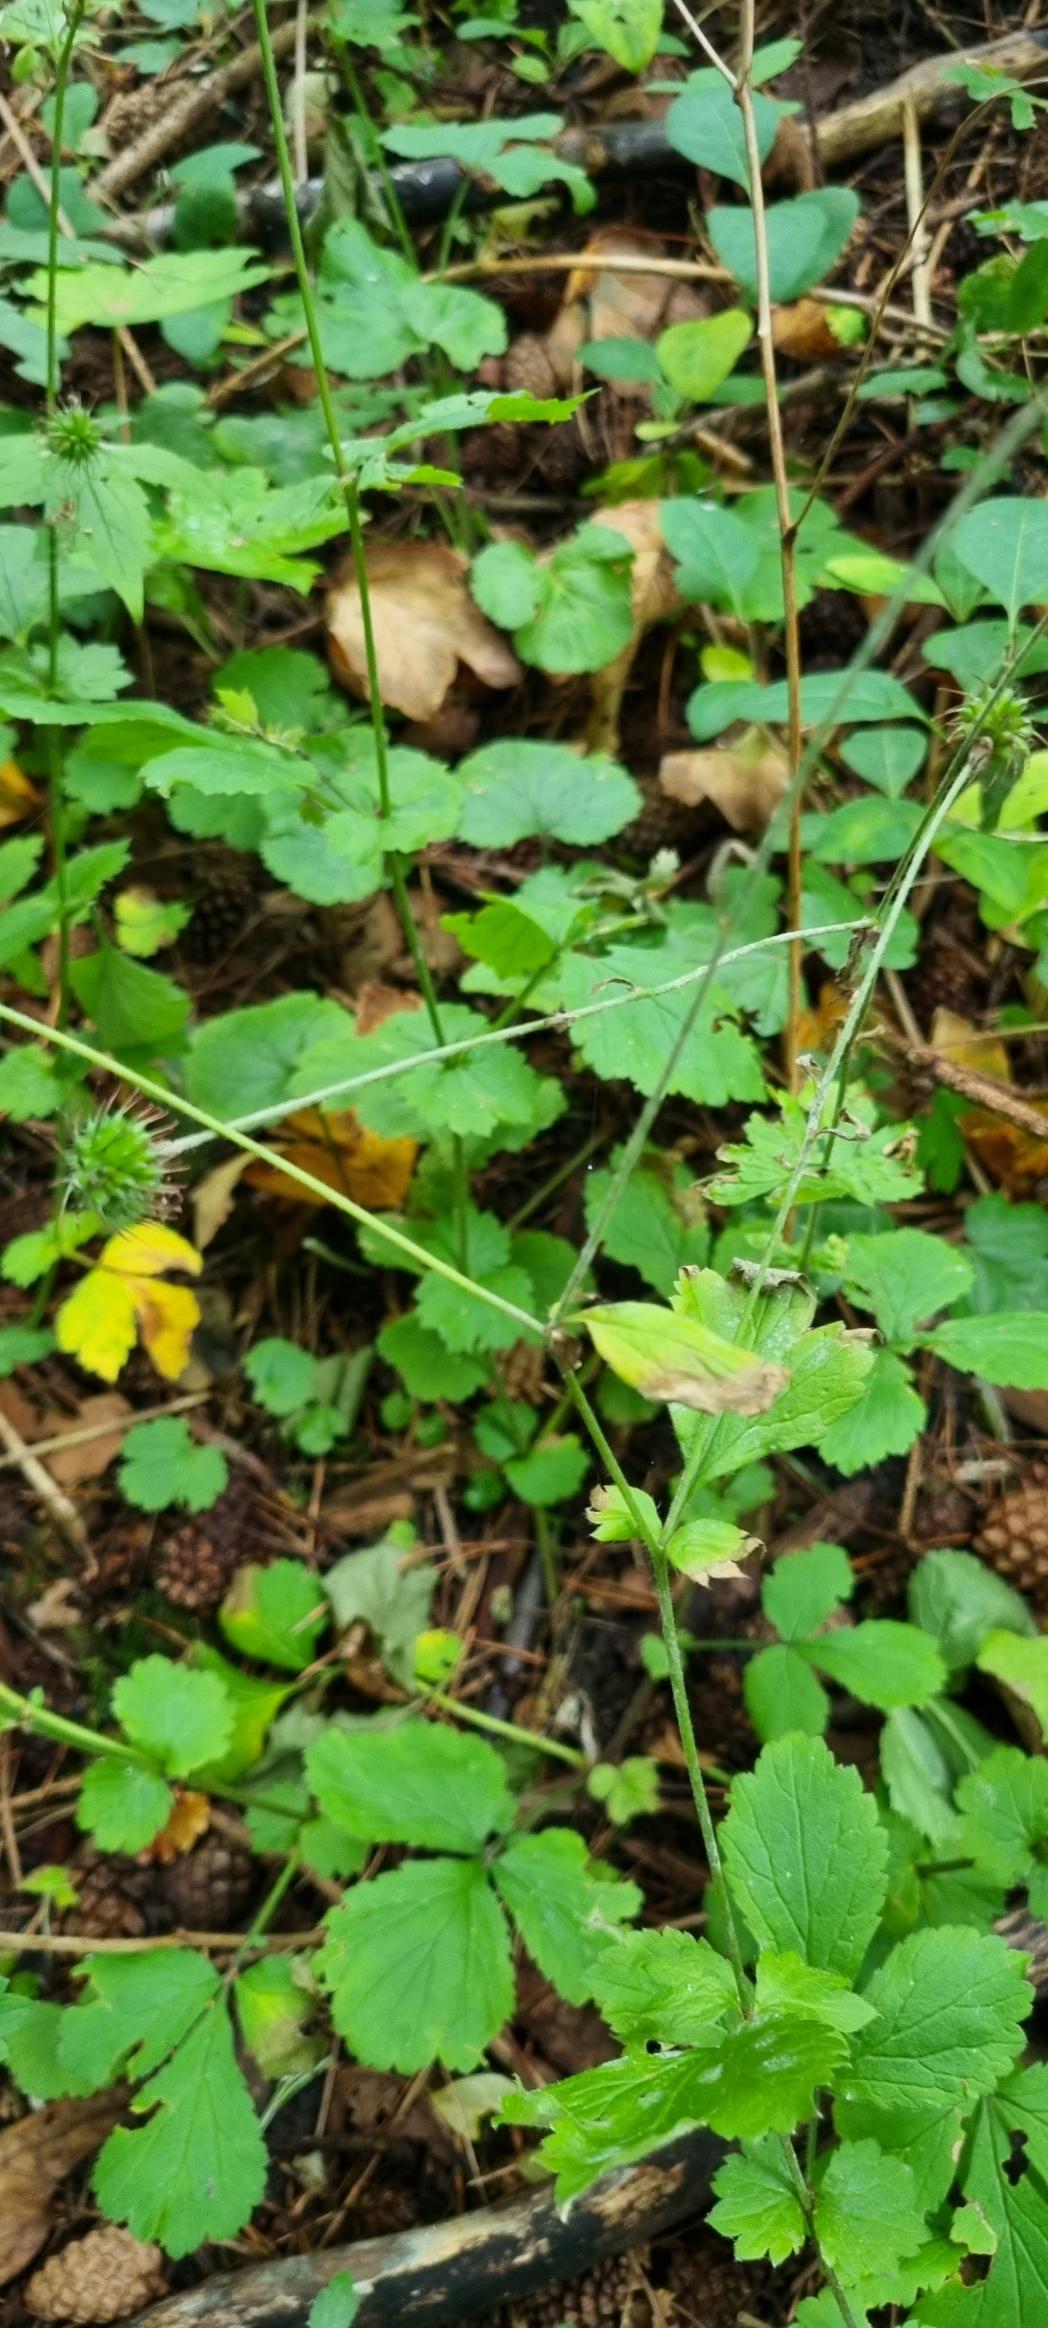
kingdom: Plantae
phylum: Tracheophyta
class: Magnoliopsida
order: Rosales
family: Rosaceae
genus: Geum
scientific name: Geum urbanum
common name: Feber-nellikerod
